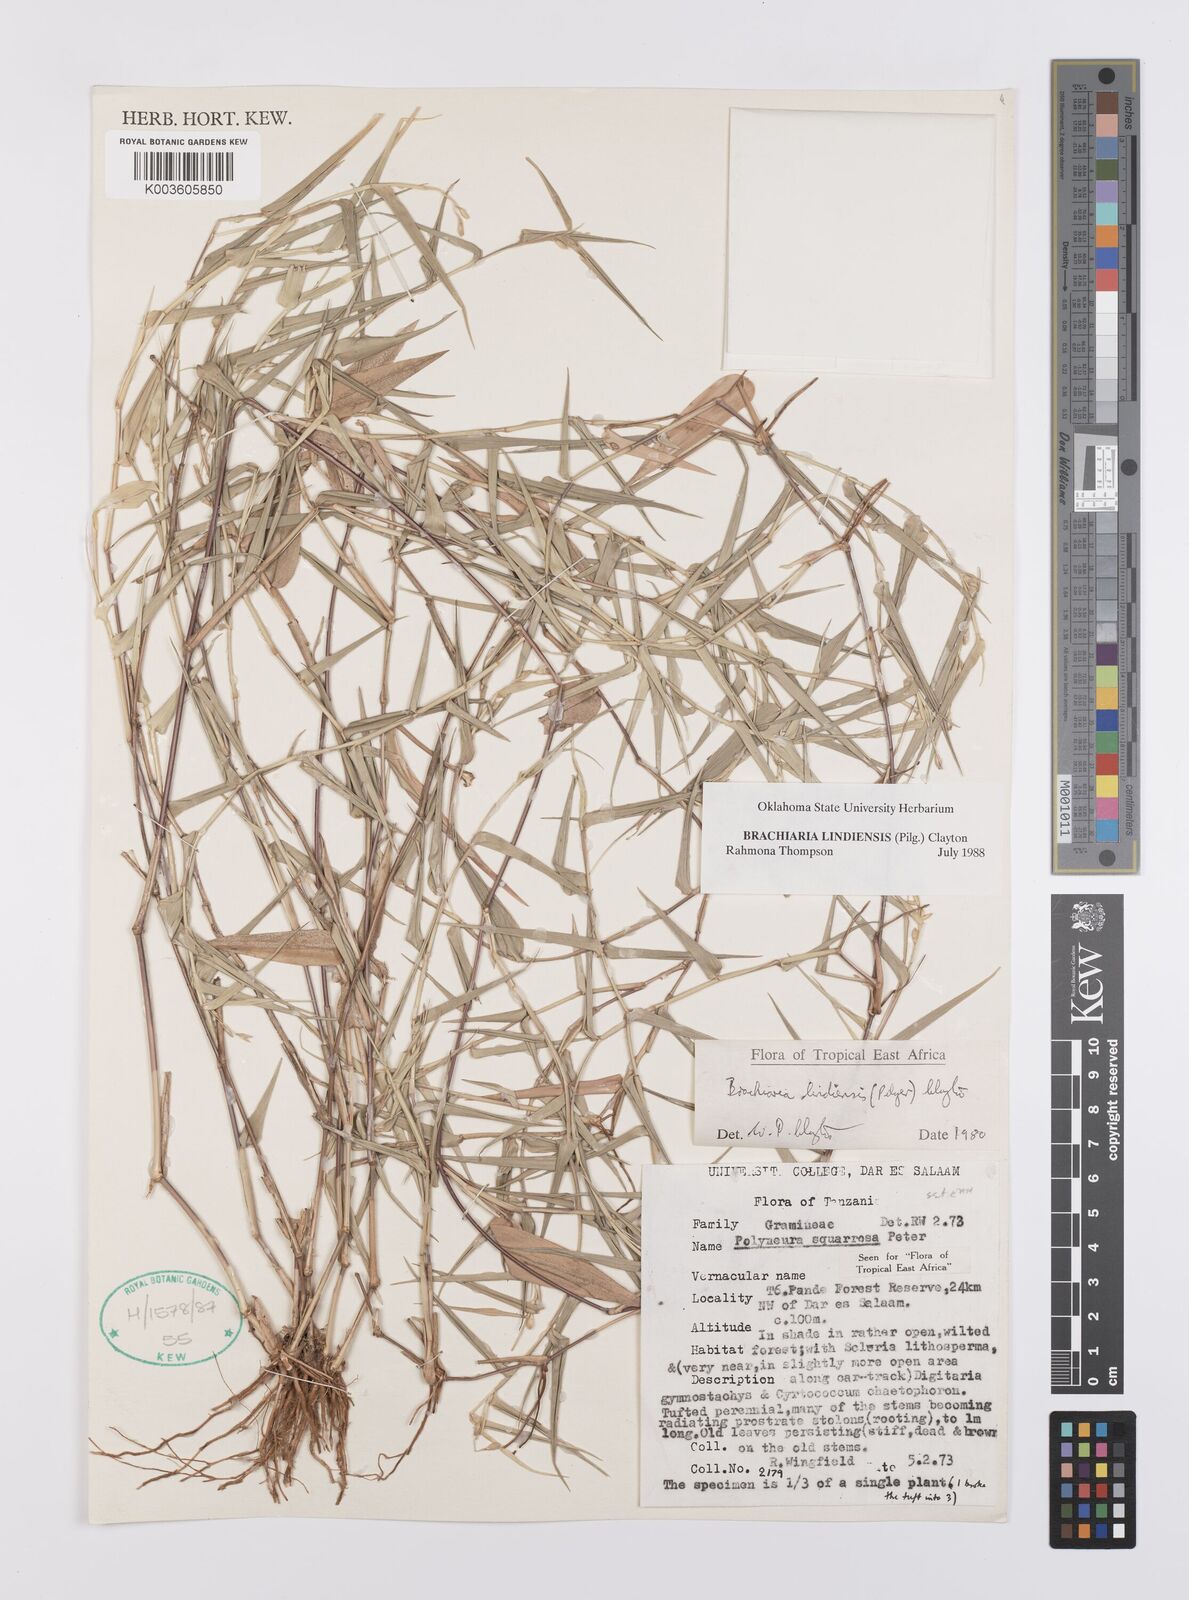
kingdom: Plantae
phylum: Tracheophyta
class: Liliopsida
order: Poales
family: Poaceae
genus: Urochloa
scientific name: Urochloa Brachiaria lindiensis
